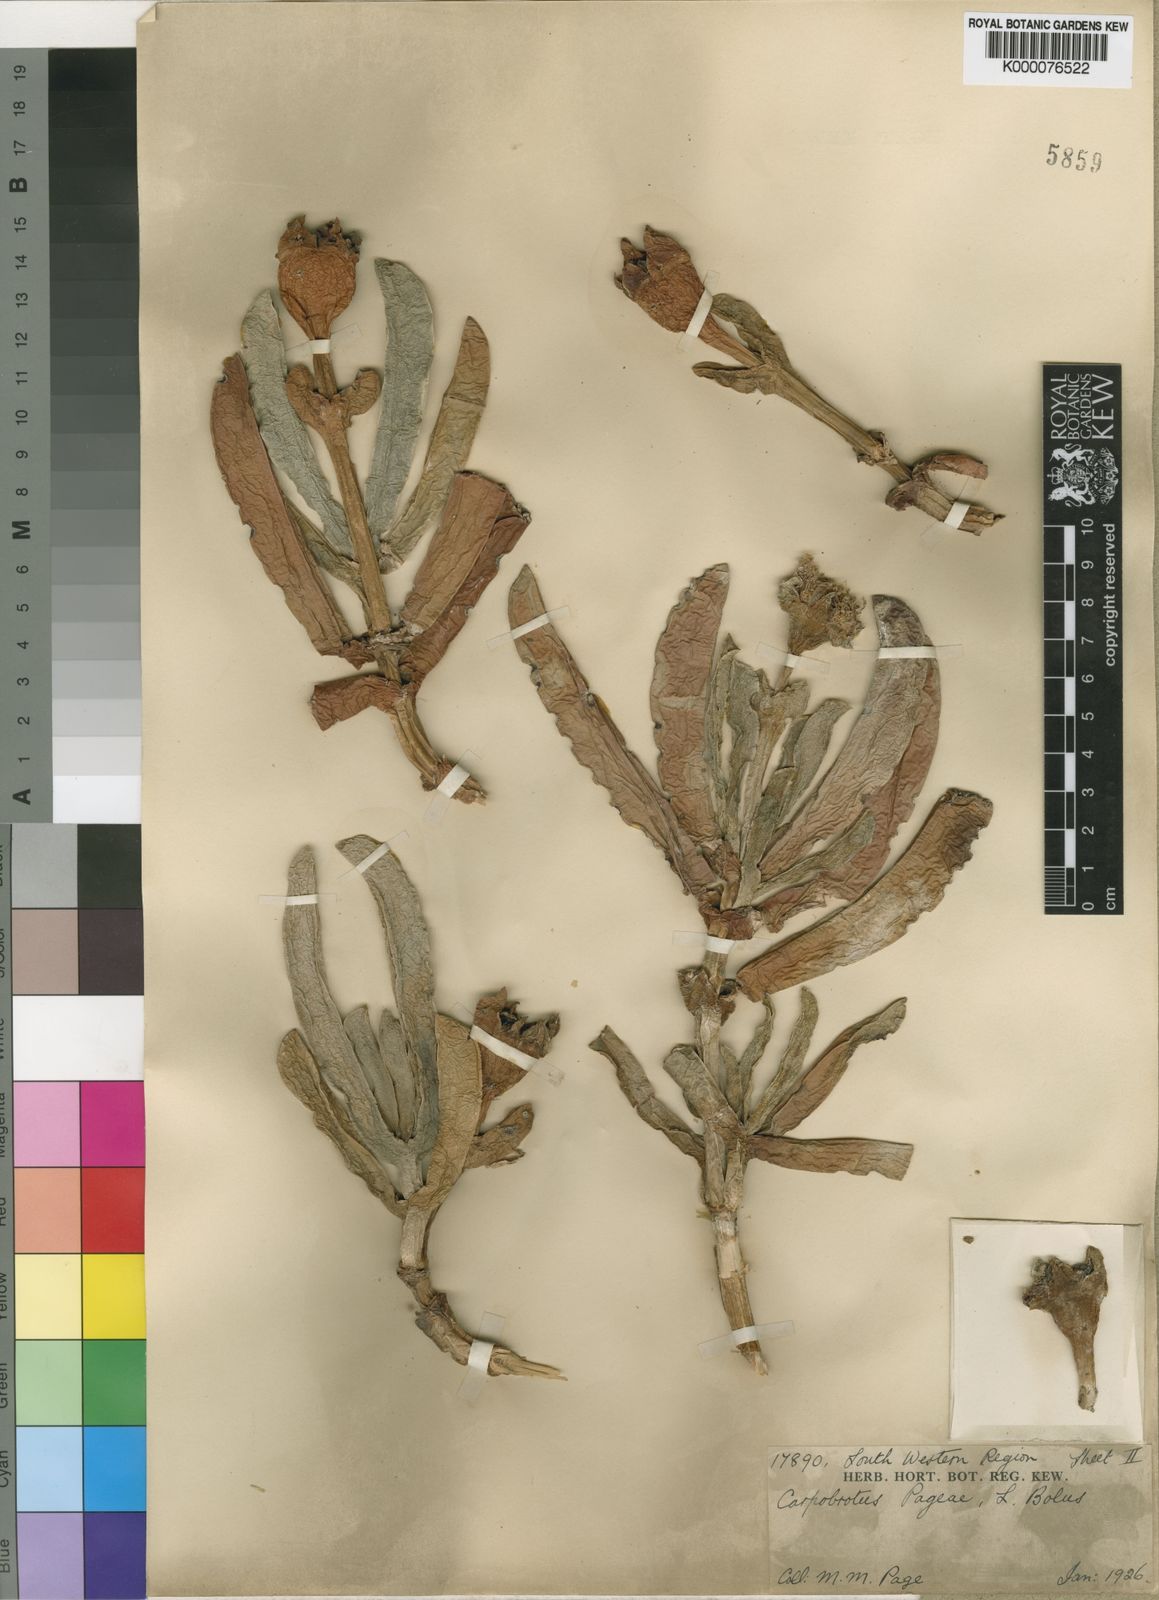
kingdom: Plantae
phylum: Tracheophyta
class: Magnoliopsida
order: Caryophyllales
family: Aizoaceae
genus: Carpobrotus
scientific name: Carpobrotus mellei
